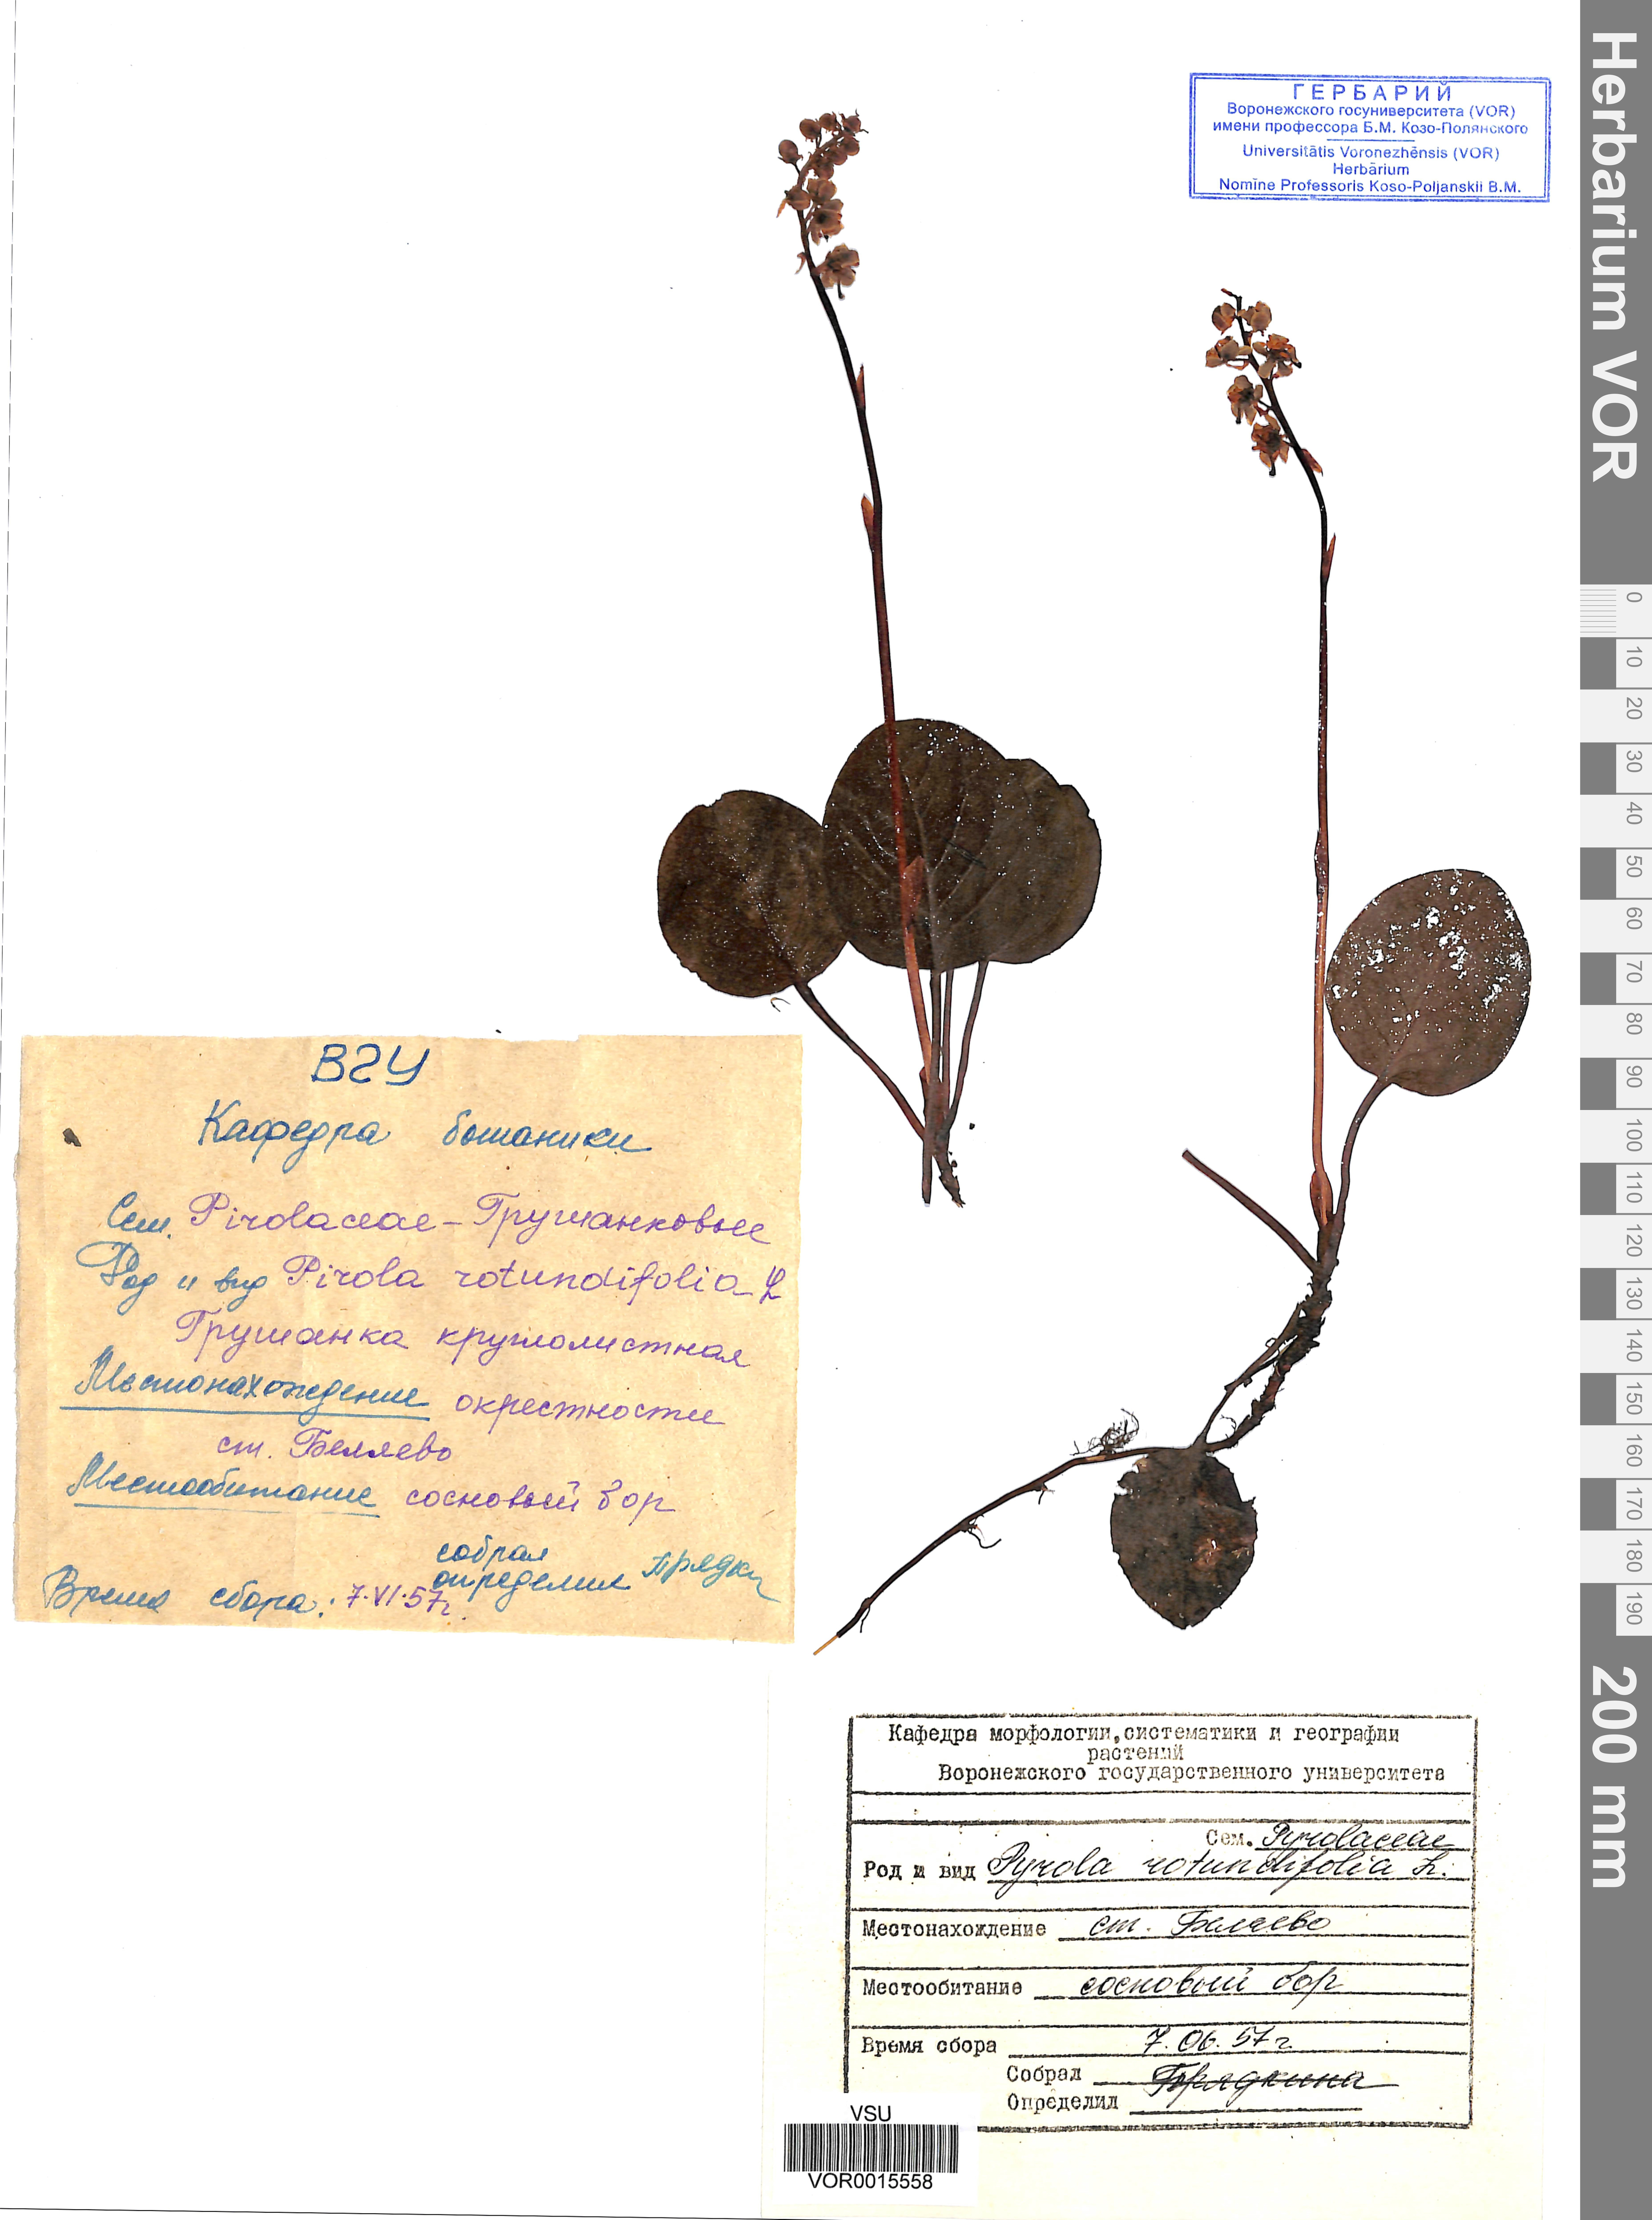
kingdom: Plantae
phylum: Tracheophyta
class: Magnoliopsida
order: Ericales
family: Ericaceae
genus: Pyrola
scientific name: Pyrola rotundifolia
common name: Round-leaved wintergreen
